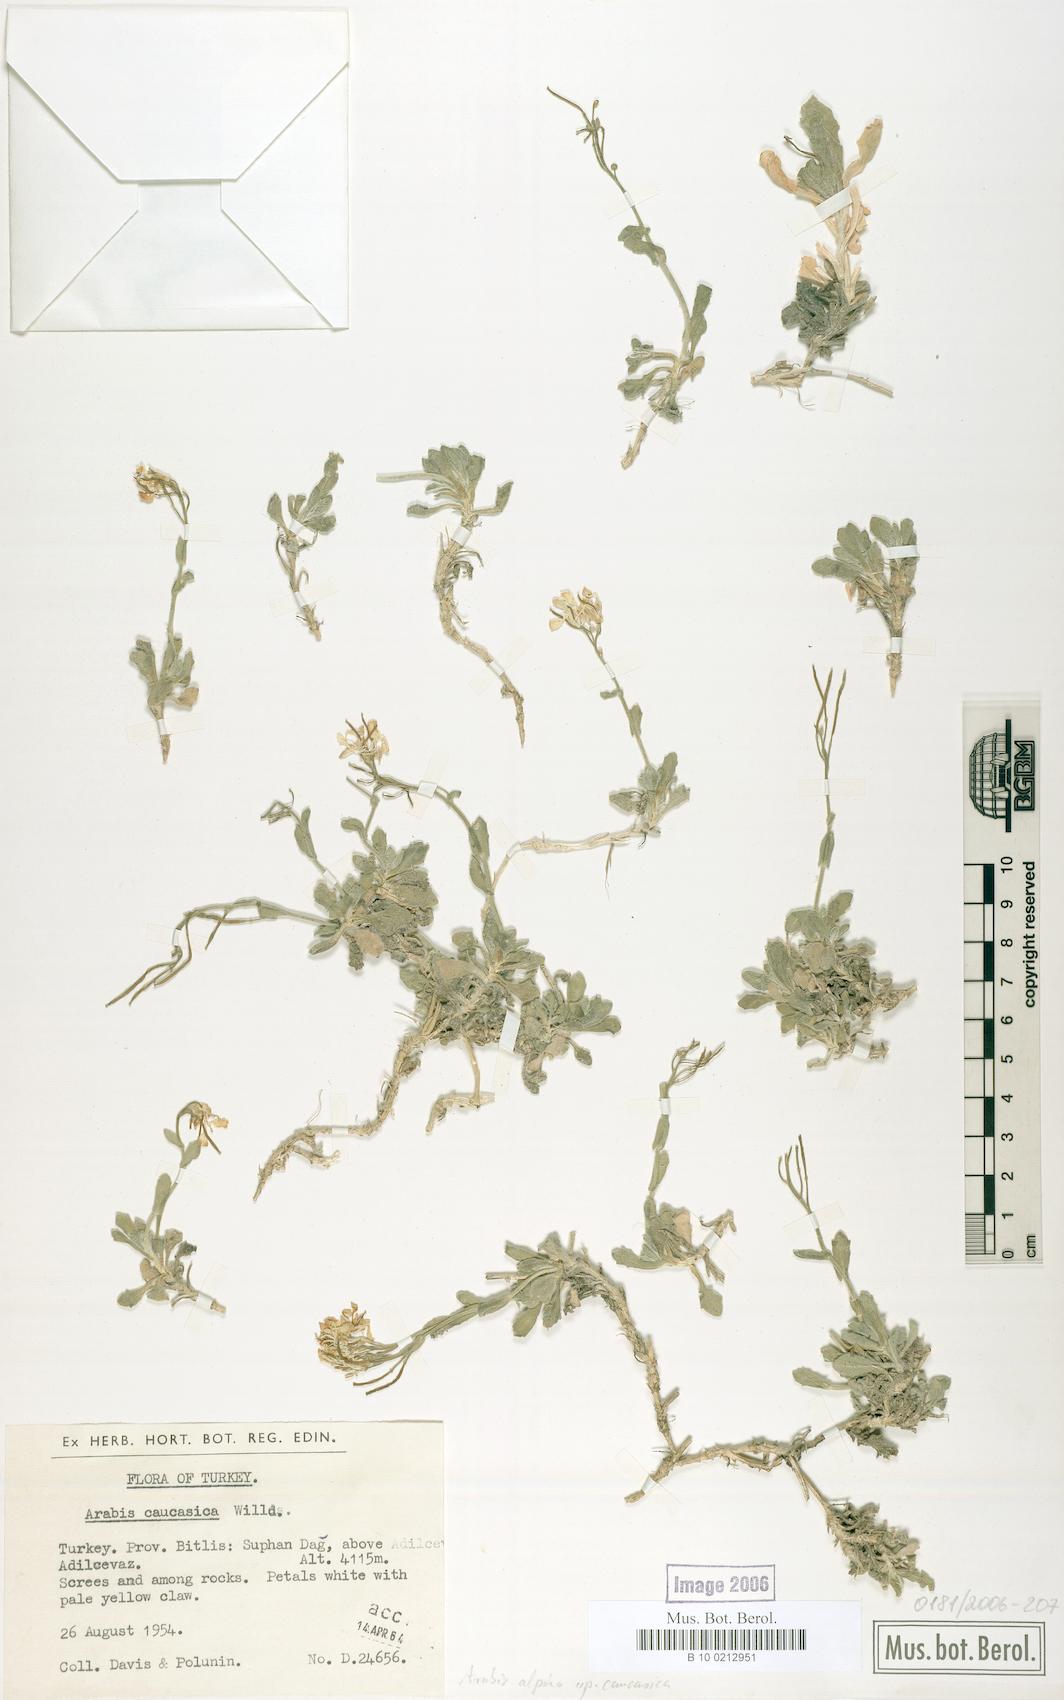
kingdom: Plantae
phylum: Tracheophyta
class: Magnoliopsida
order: Brassicales
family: Brassicaceae
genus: Arabis
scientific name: Arabis caucasica
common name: Gray rockcress
